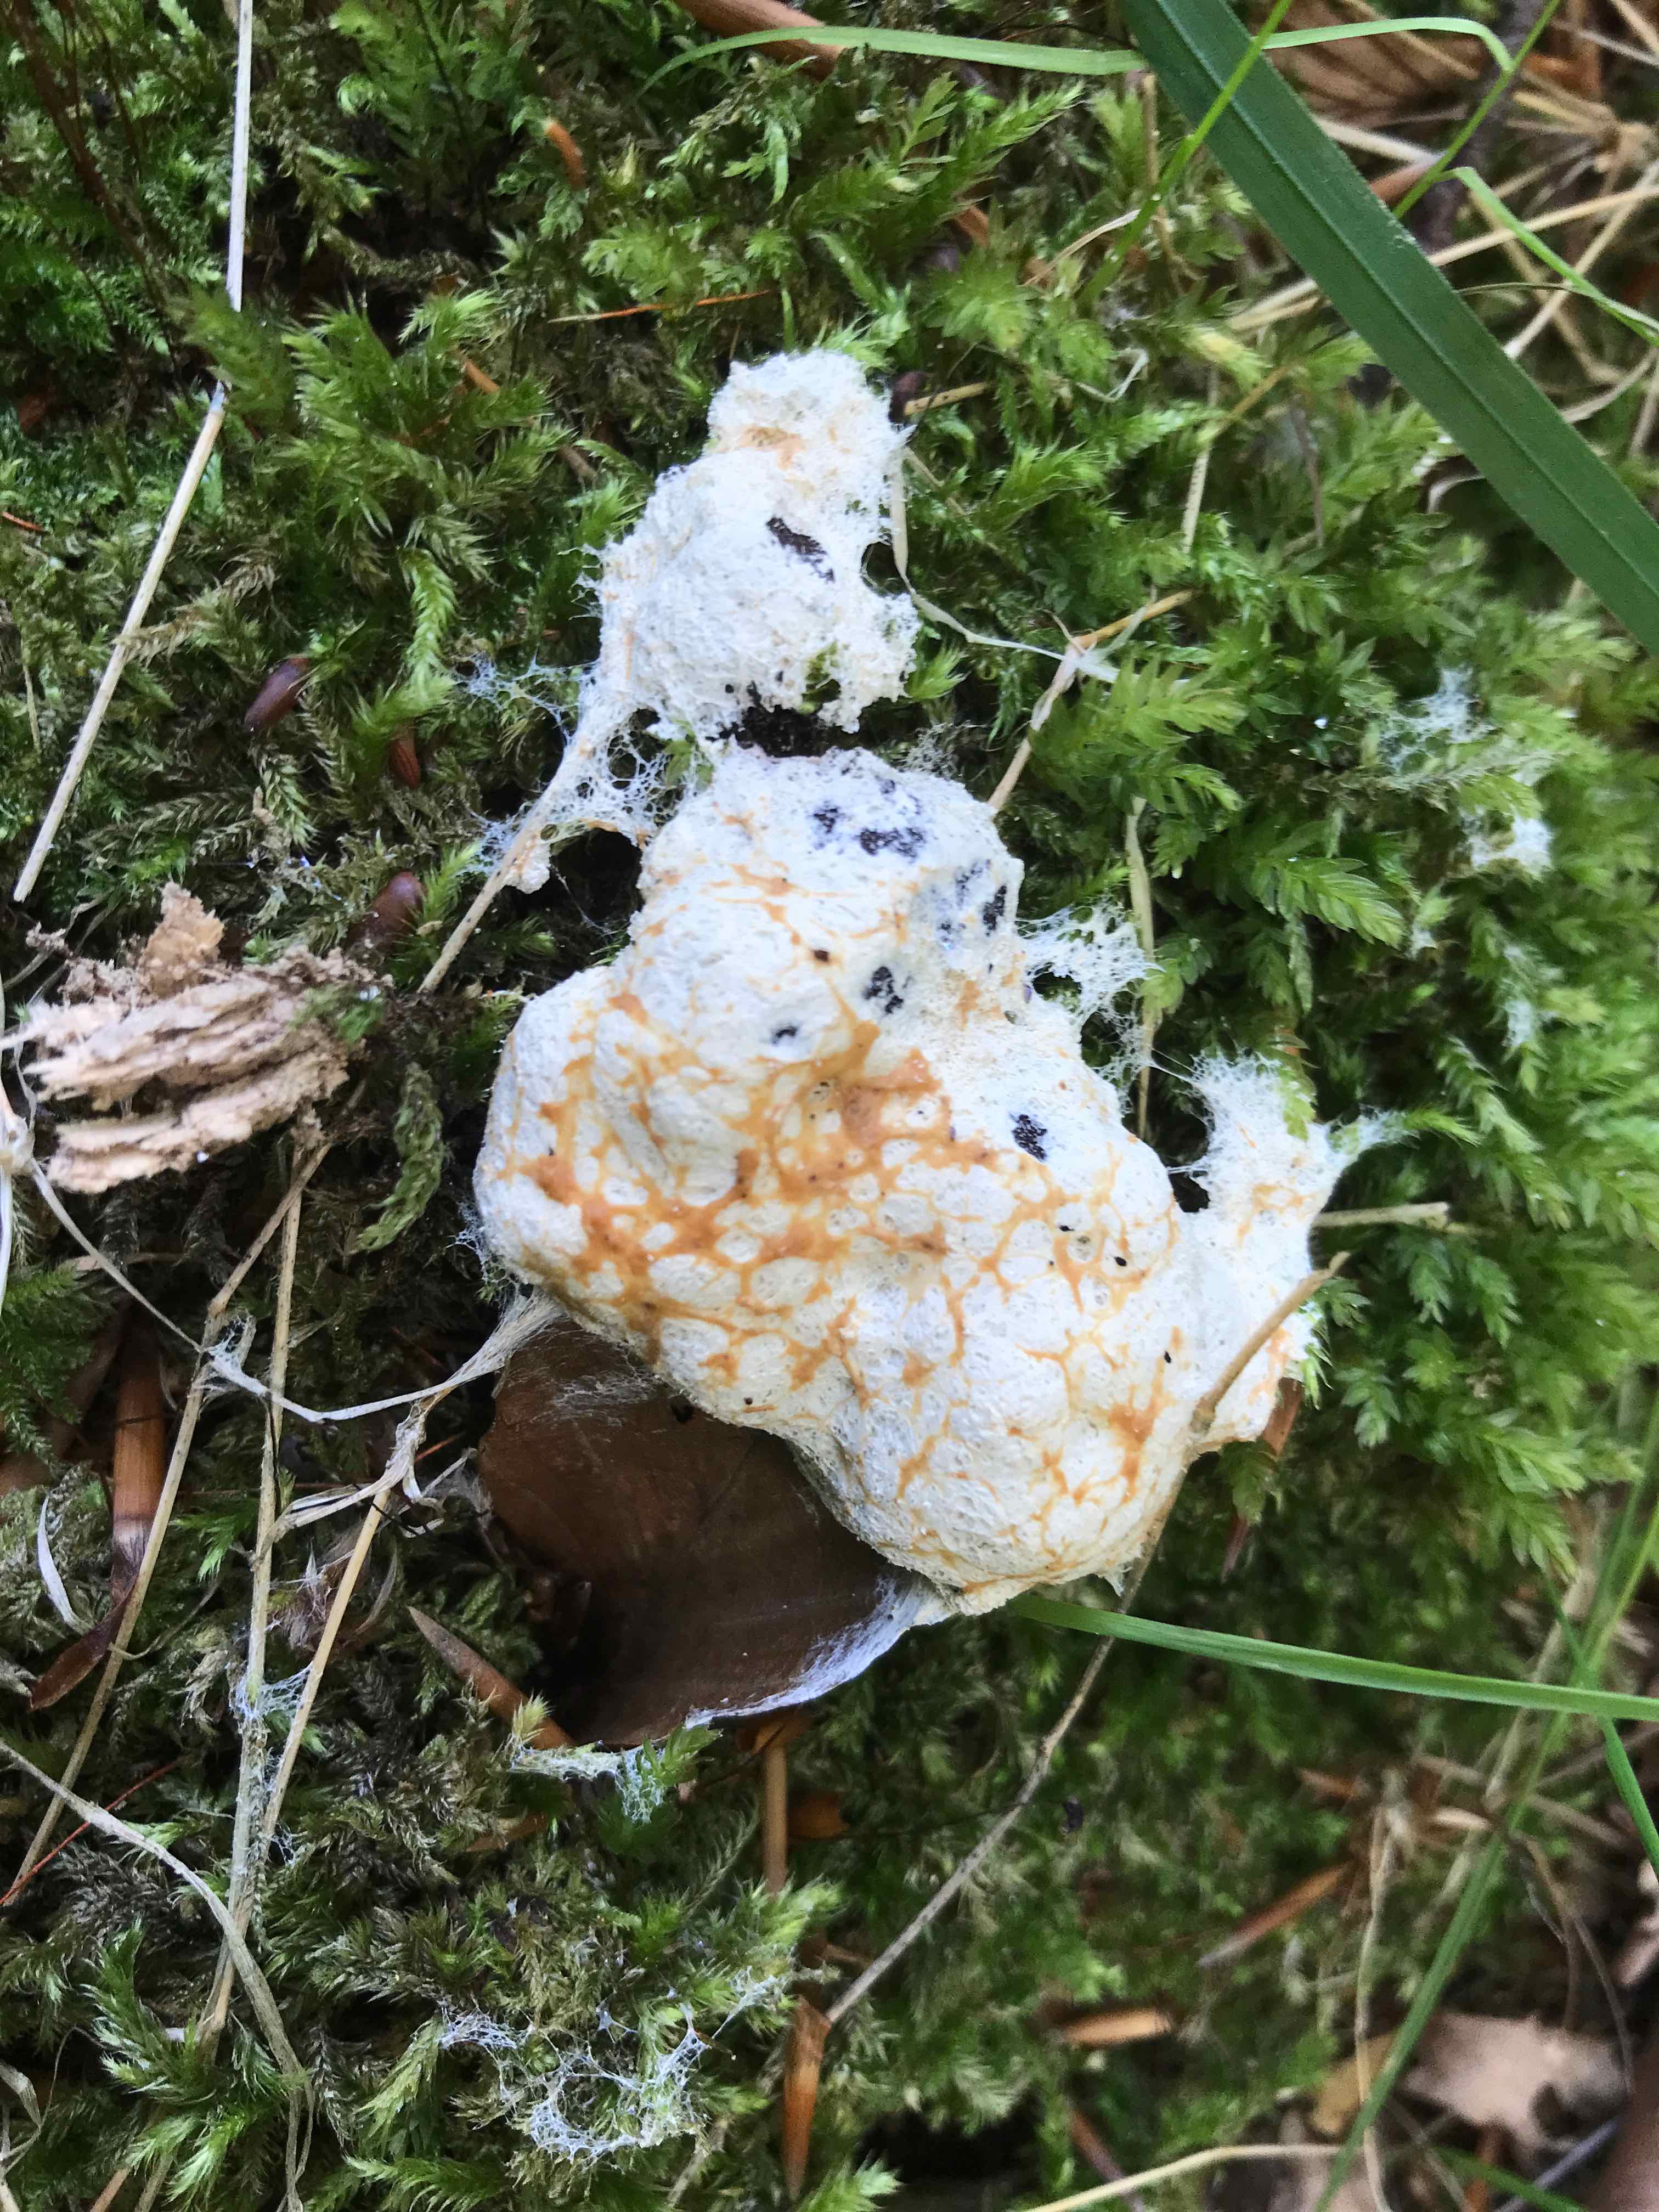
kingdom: Protozoa
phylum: Mycetozoa
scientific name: Mycetozoa
